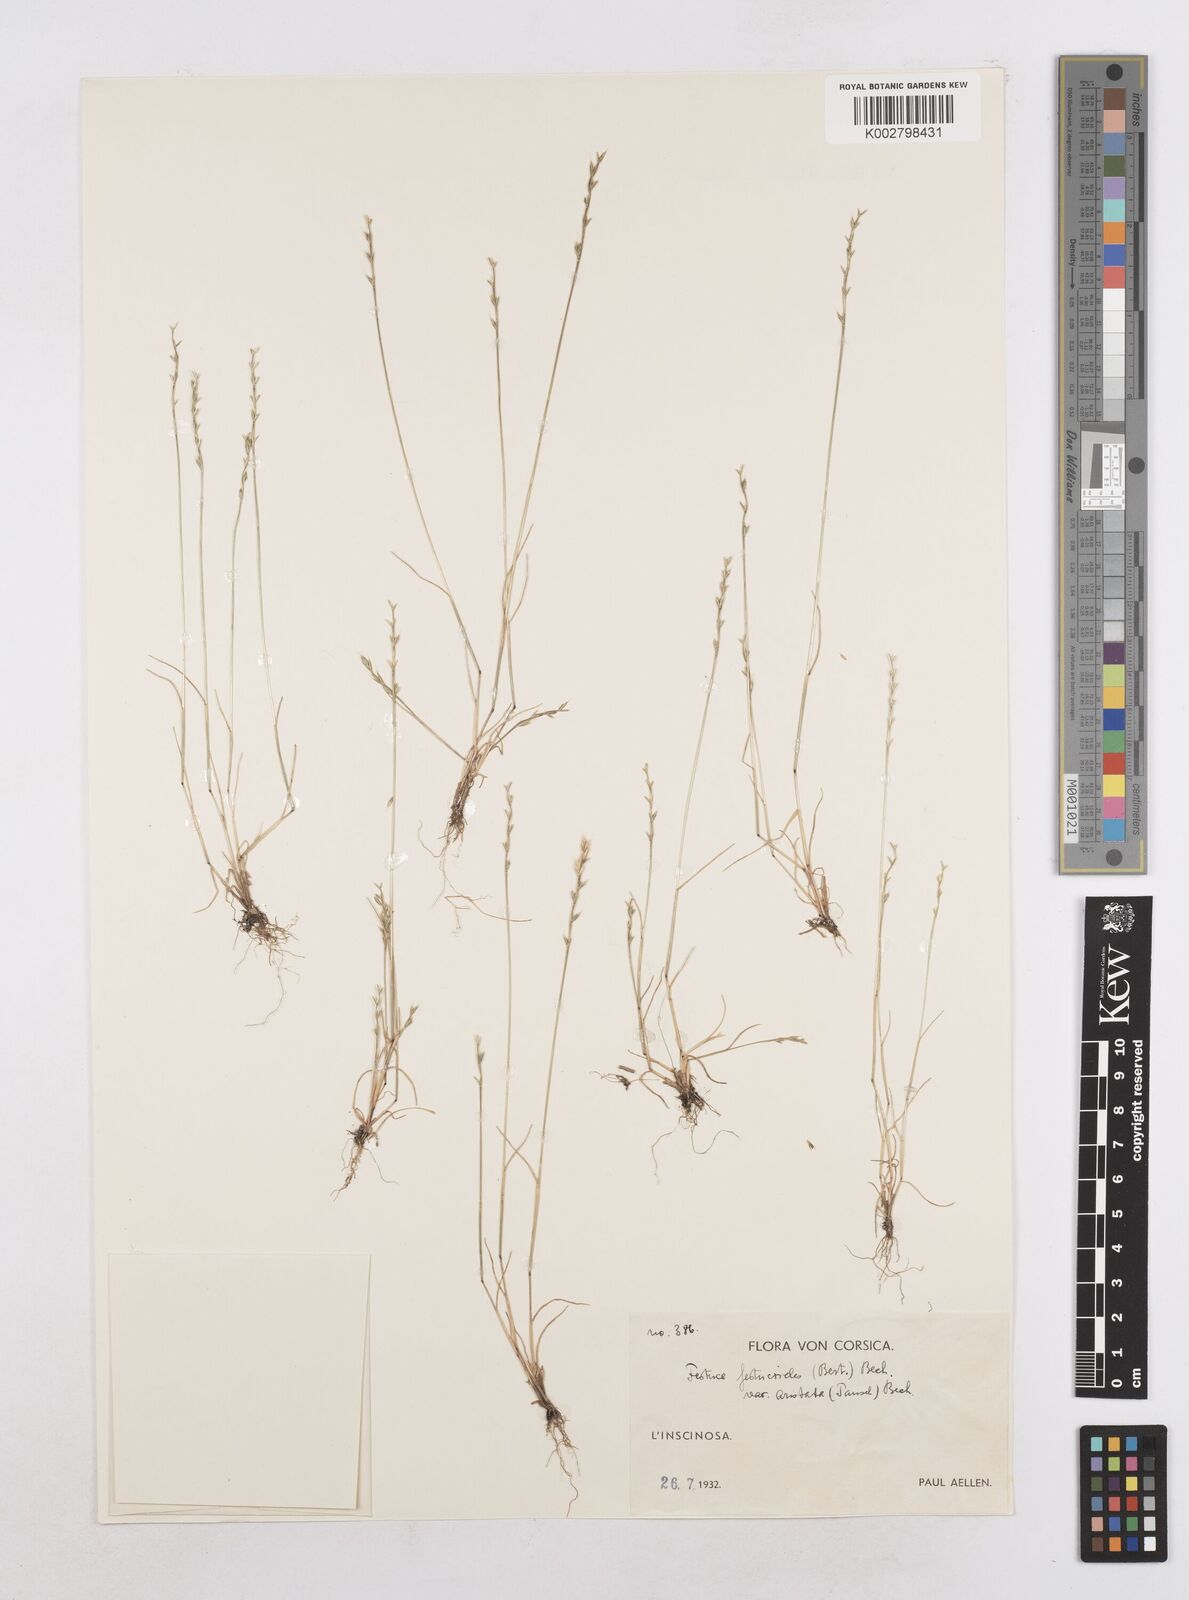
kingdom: Plantae
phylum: Tracheophyta
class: Liliopsida
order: Poales
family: Poaceae
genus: Festuca
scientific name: Festuca lachenalii
